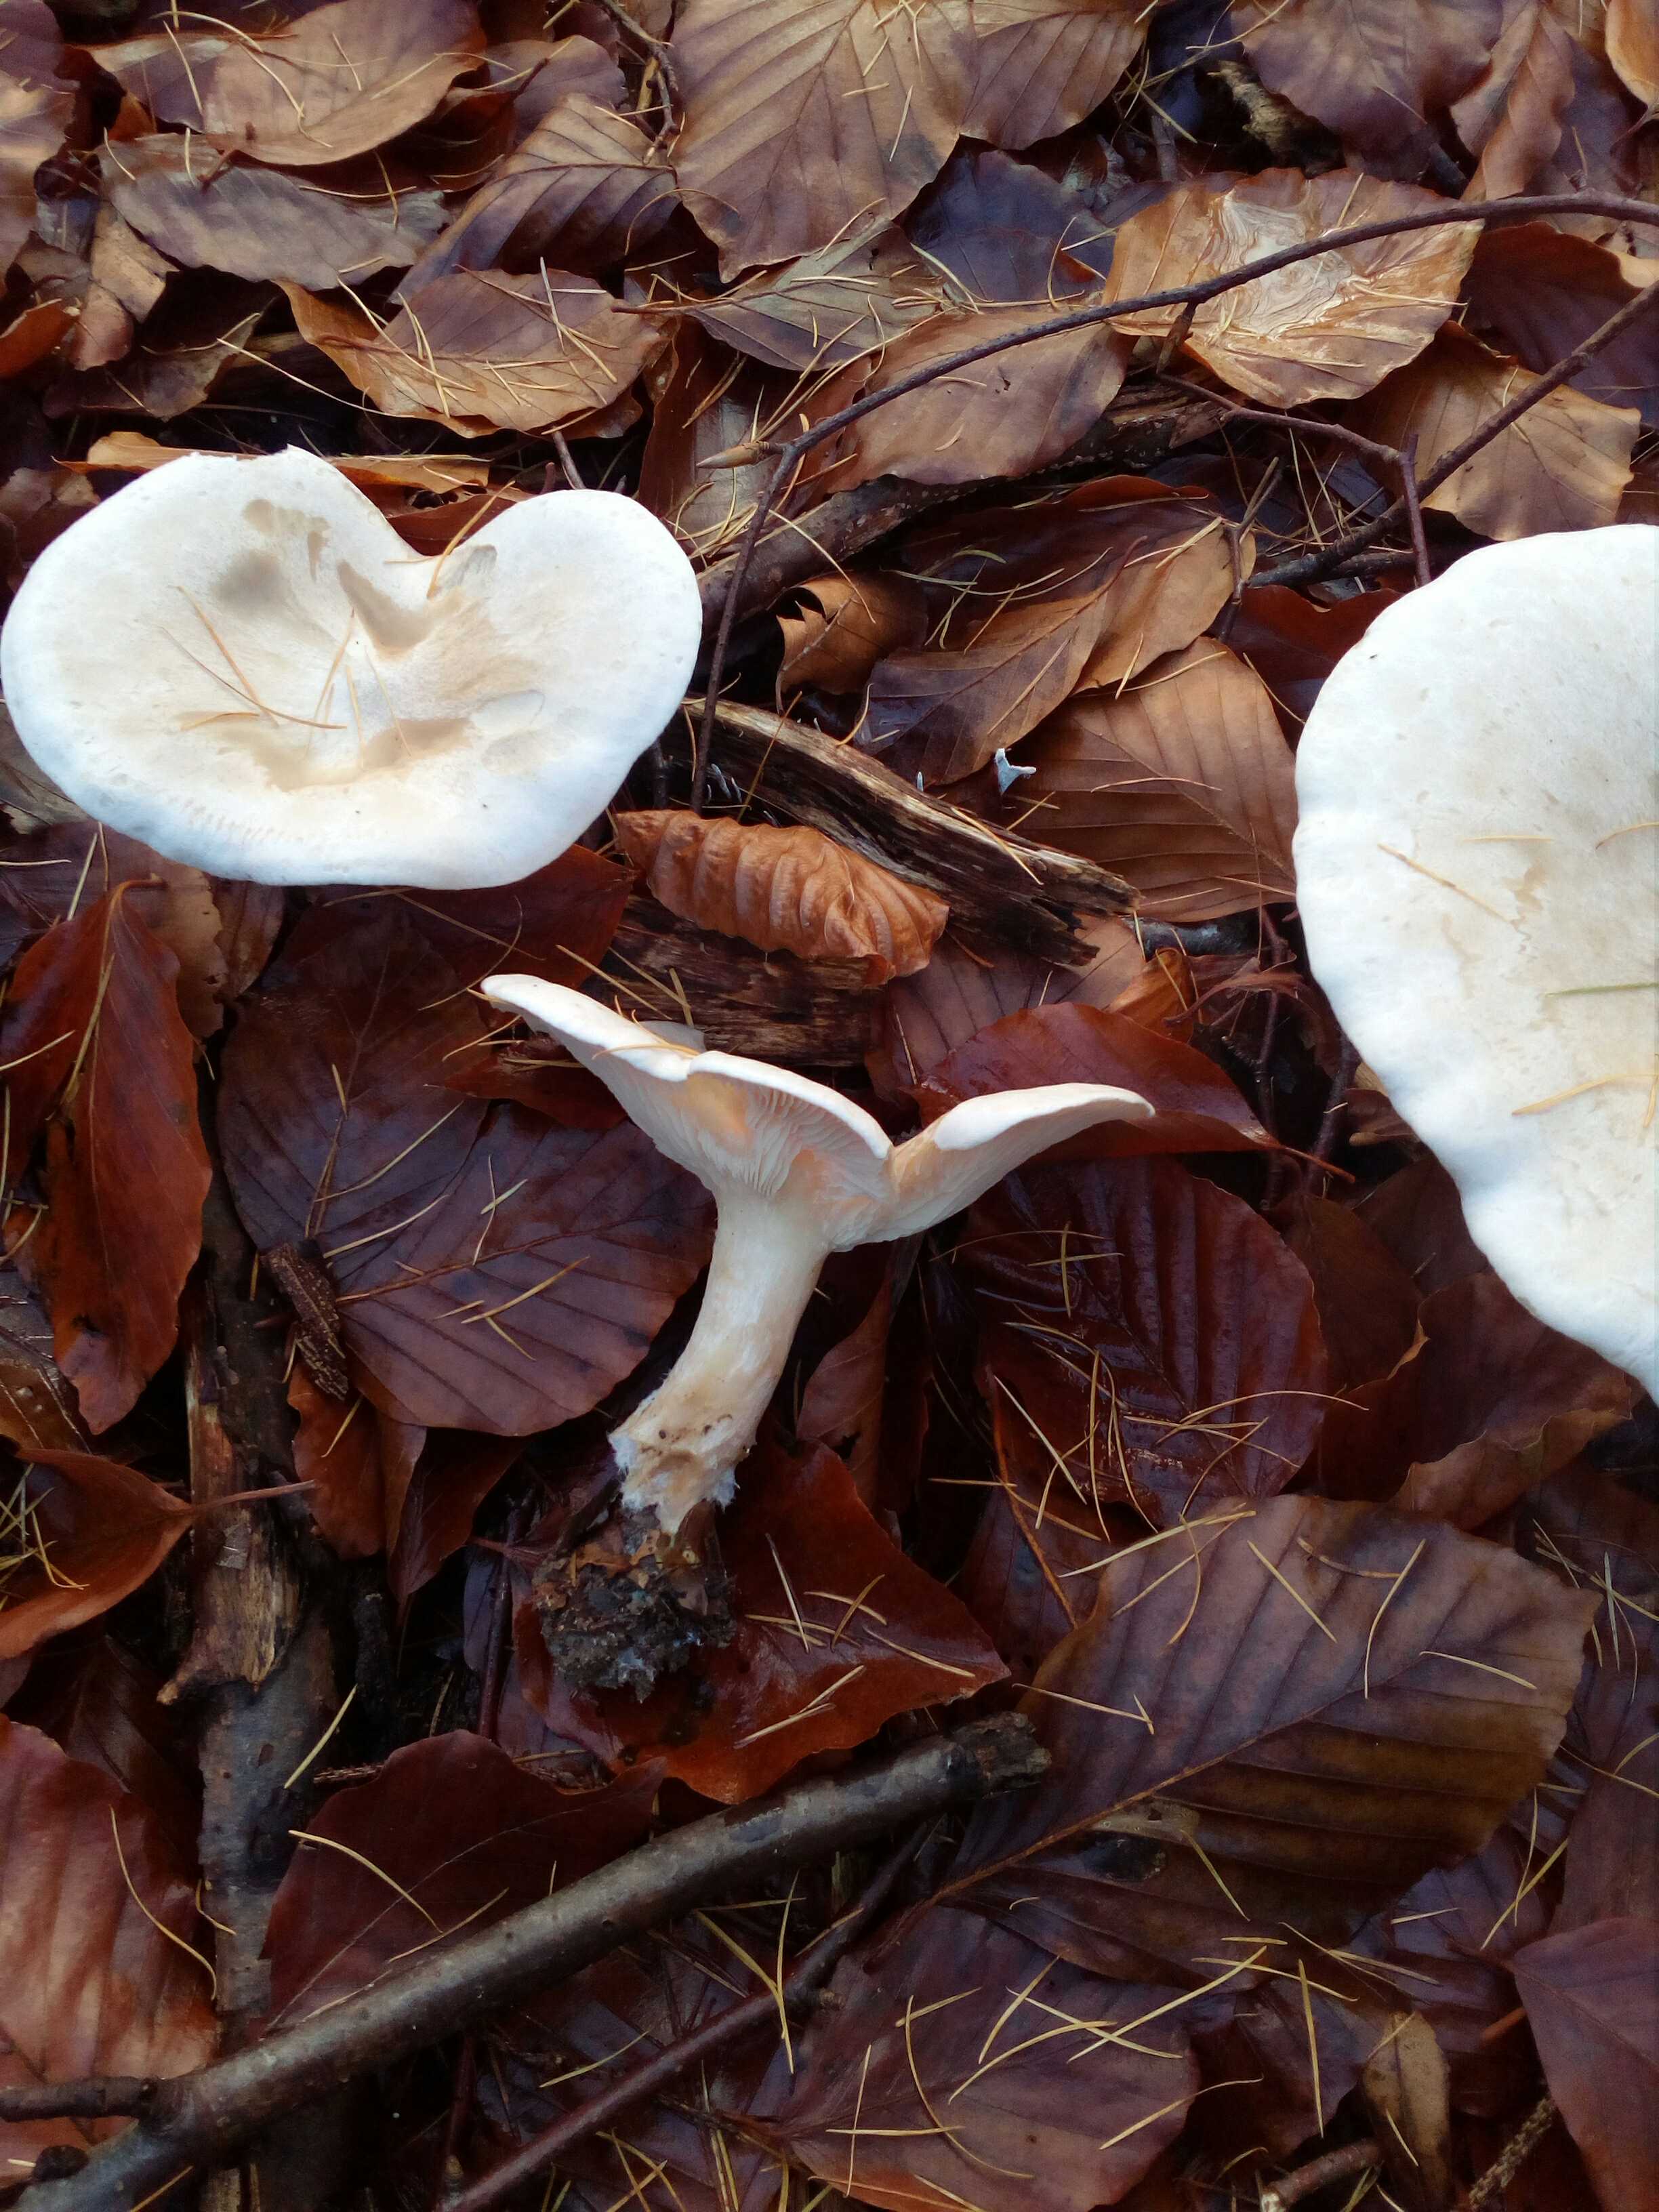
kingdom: Fungi
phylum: Basidiomycota
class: Agaricomycetes
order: Agaricales
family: Tricholomataceae
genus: Infundibulicybe
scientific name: Infundibulicybe geotropa
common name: stor tragthat
